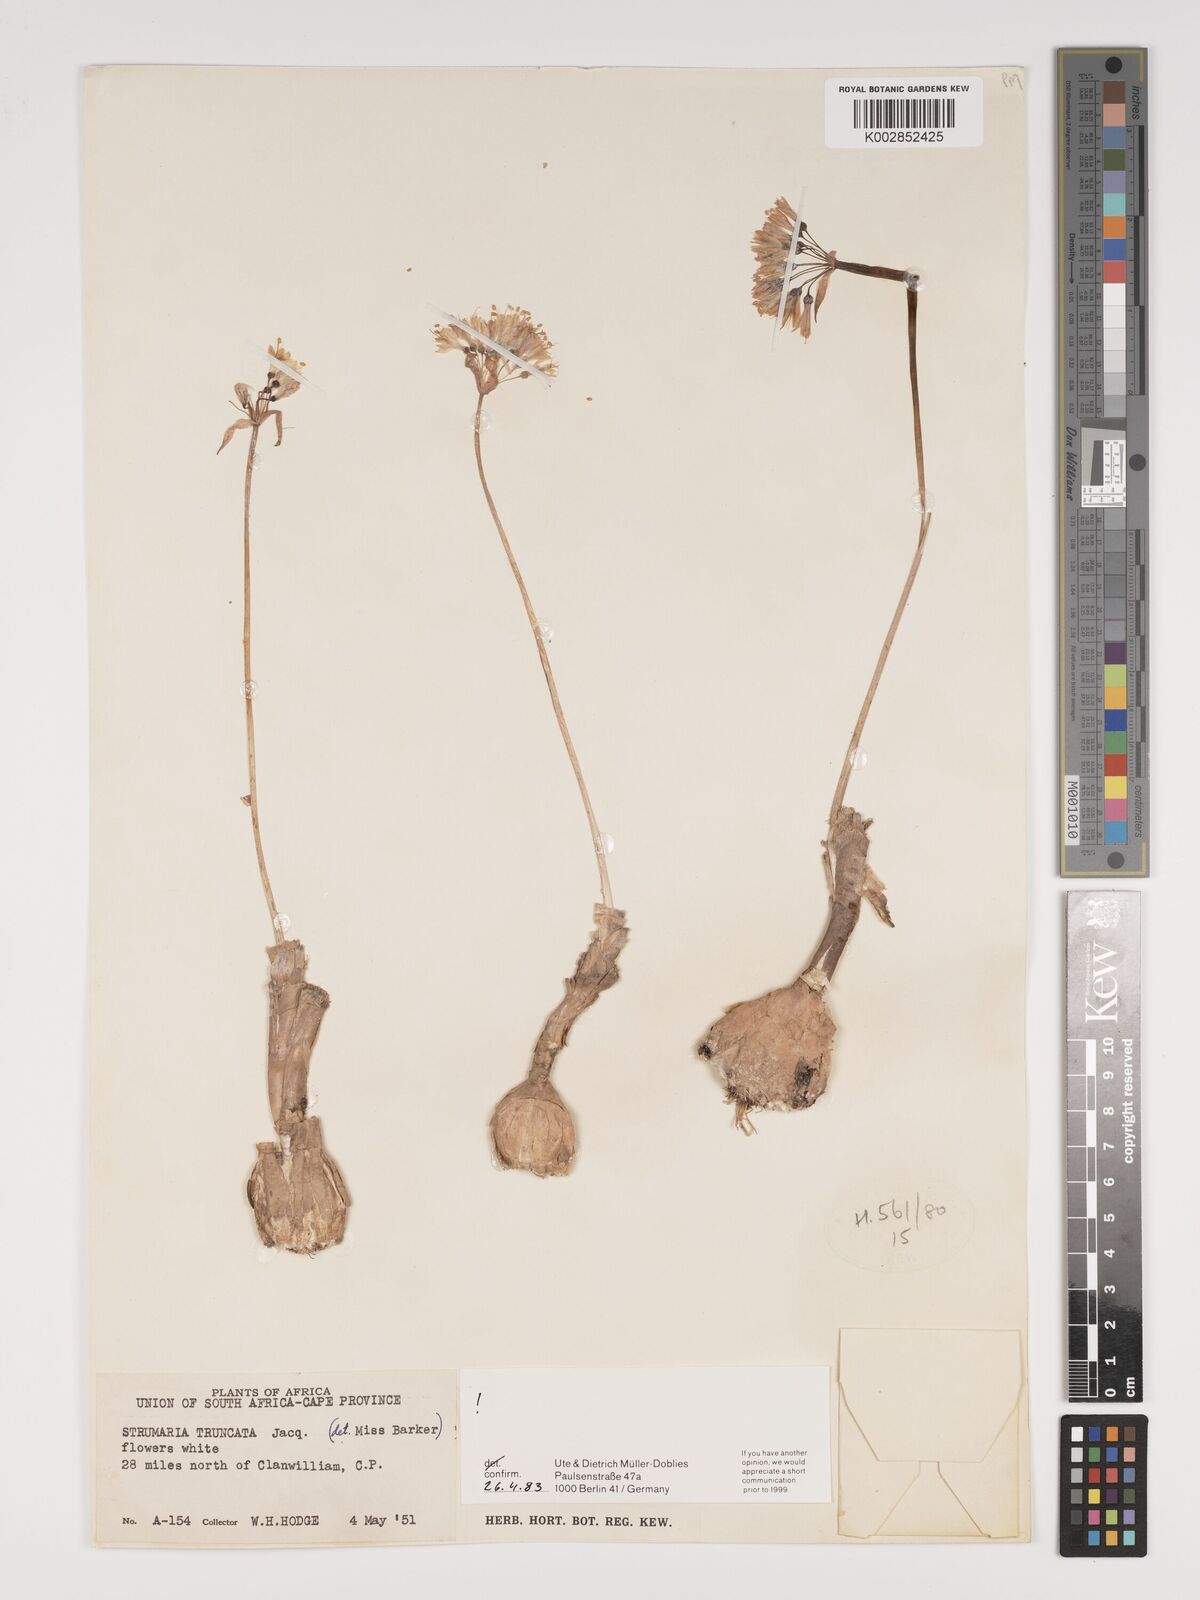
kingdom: Plantae
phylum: Tracheophyta
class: Liliopsida
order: Asparagales
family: Amaryllidaceae
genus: Strumaria
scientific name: Strumaria truncata
